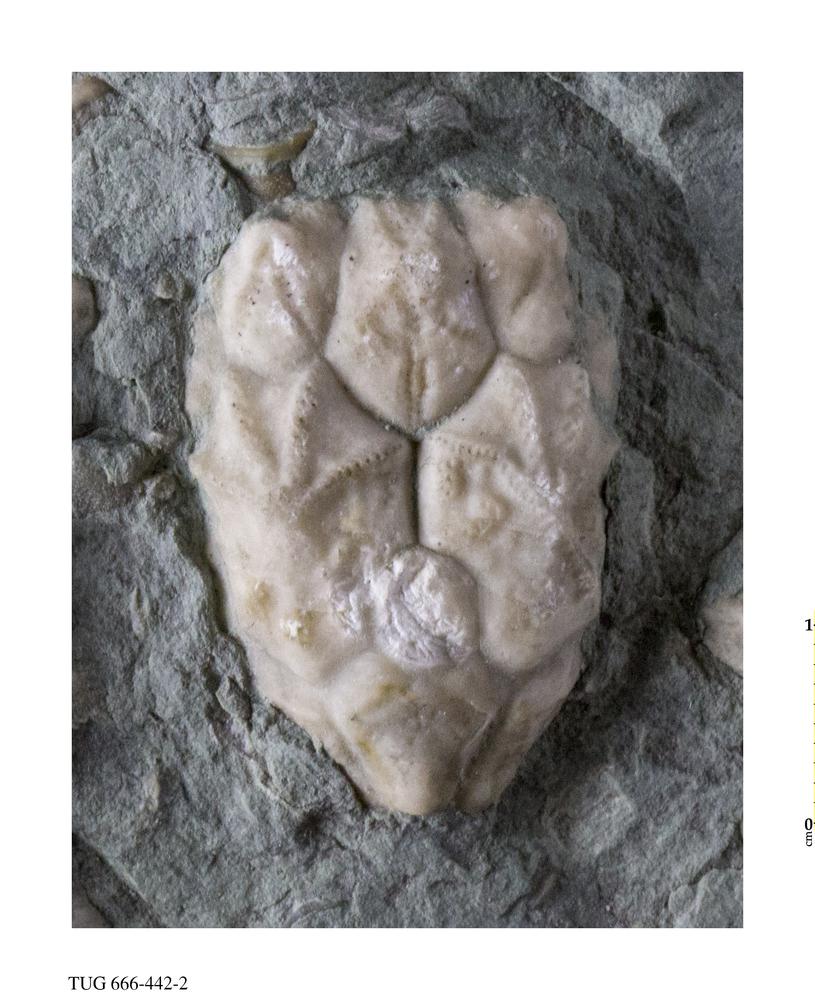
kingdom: Animalia
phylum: Echinodermata
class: Crinoidea
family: Hemicosmitidae
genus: Hemicosmites
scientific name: Hemicosmites
